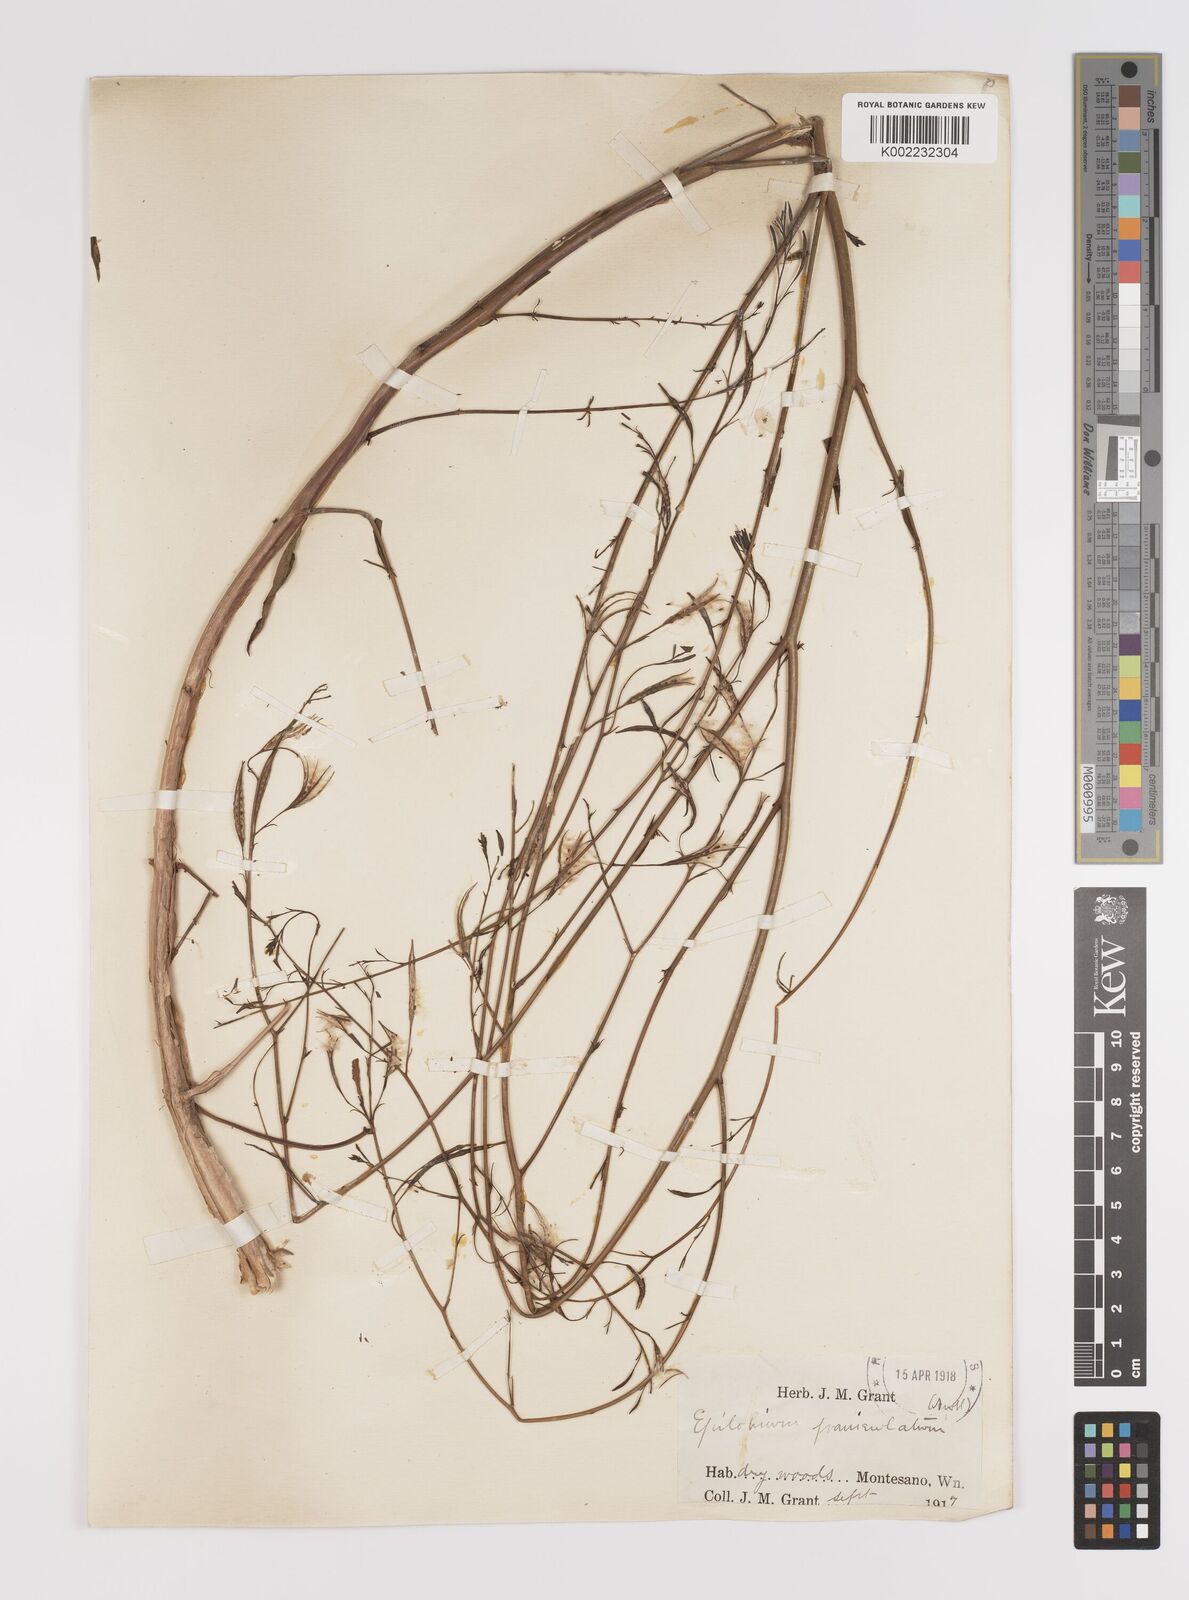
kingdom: Plantae
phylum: Tracheophyta
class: Magnoliopsida
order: Myrtales
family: Onagraceae
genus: Epilobium
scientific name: Epilobium
